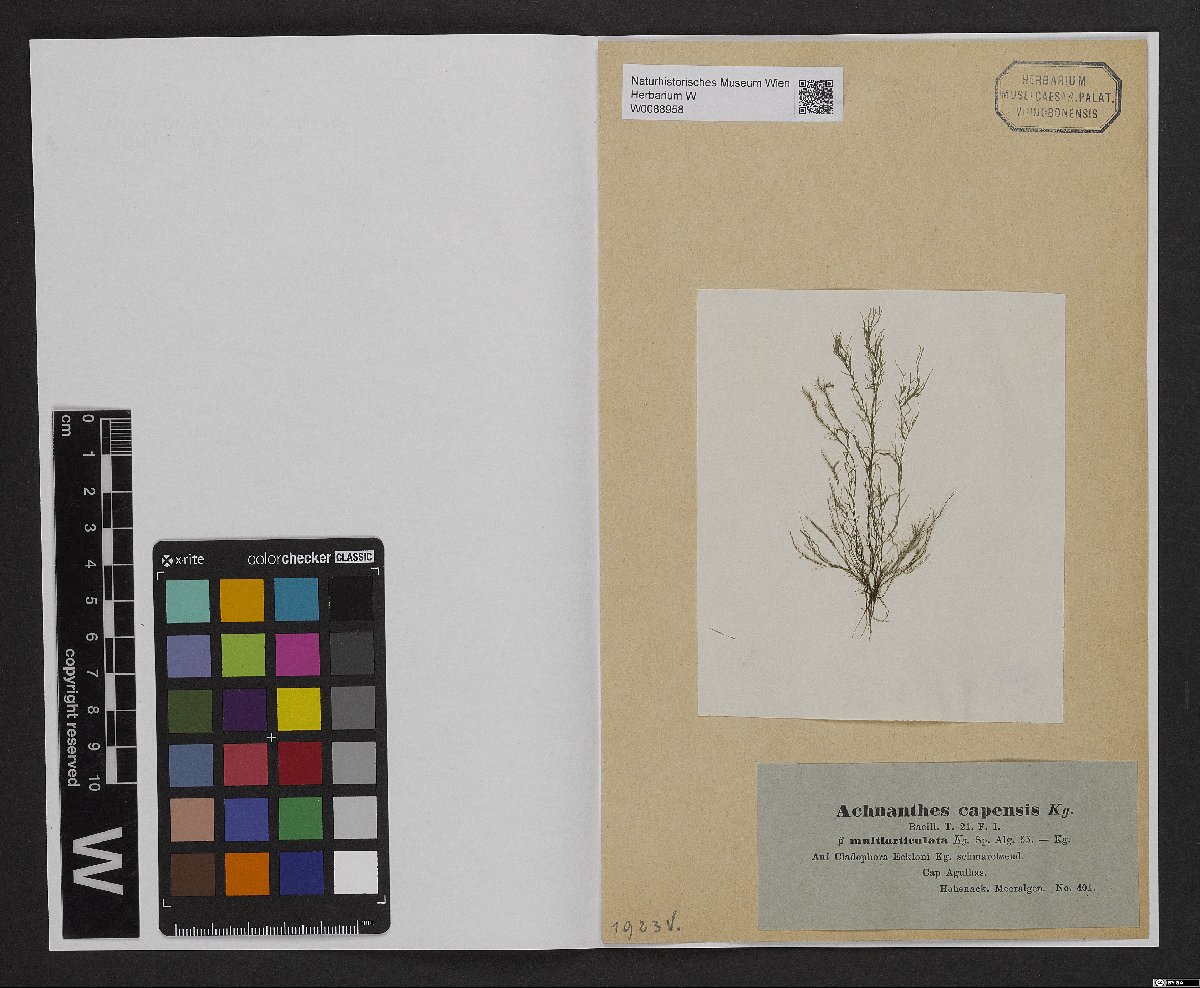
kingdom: Chromista
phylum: Ochrophyta
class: Bacillariophyceae
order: Achnanthales
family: Achnanthaceae
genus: Achnanthes
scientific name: Achnanthes capensis
